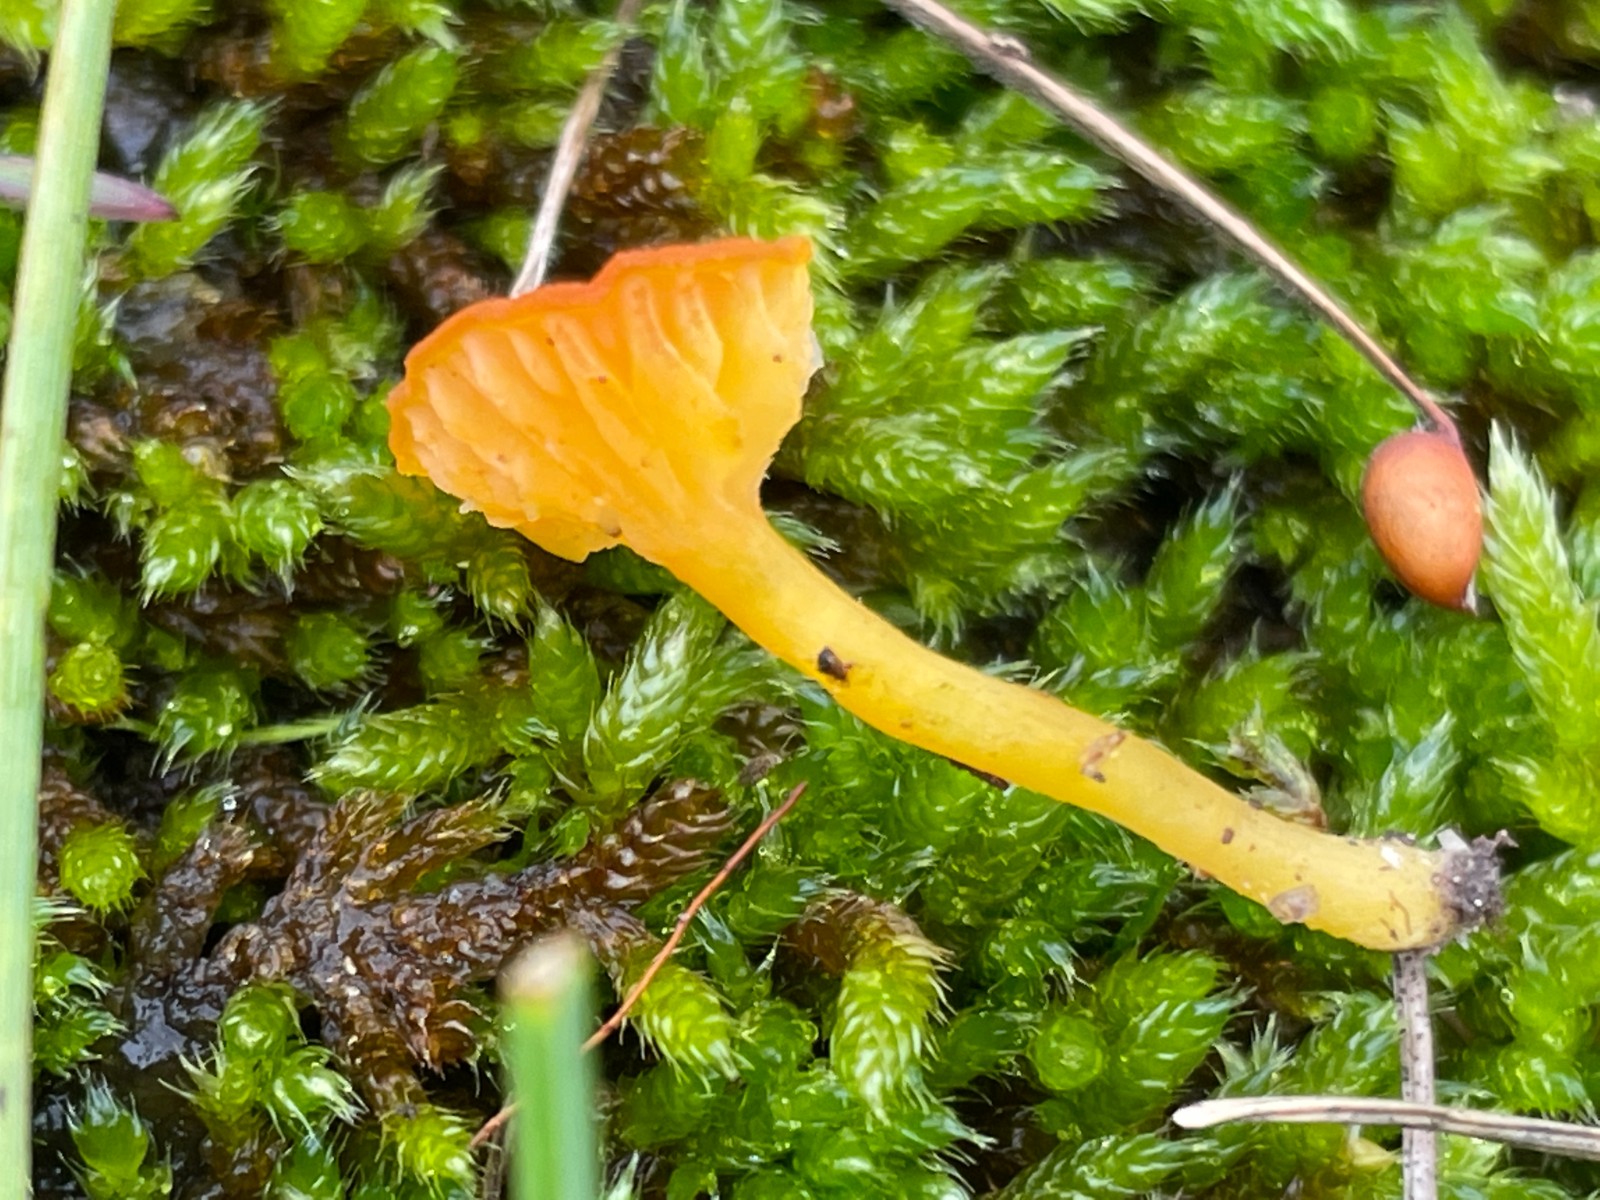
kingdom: Fungi
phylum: Basidiomycota
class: Agaricomycetes
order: Agaricales
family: Hygrophoraceae
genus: Hygrocybe
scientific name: Hygrocybe cantharellus
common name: kantarel-vokshat
